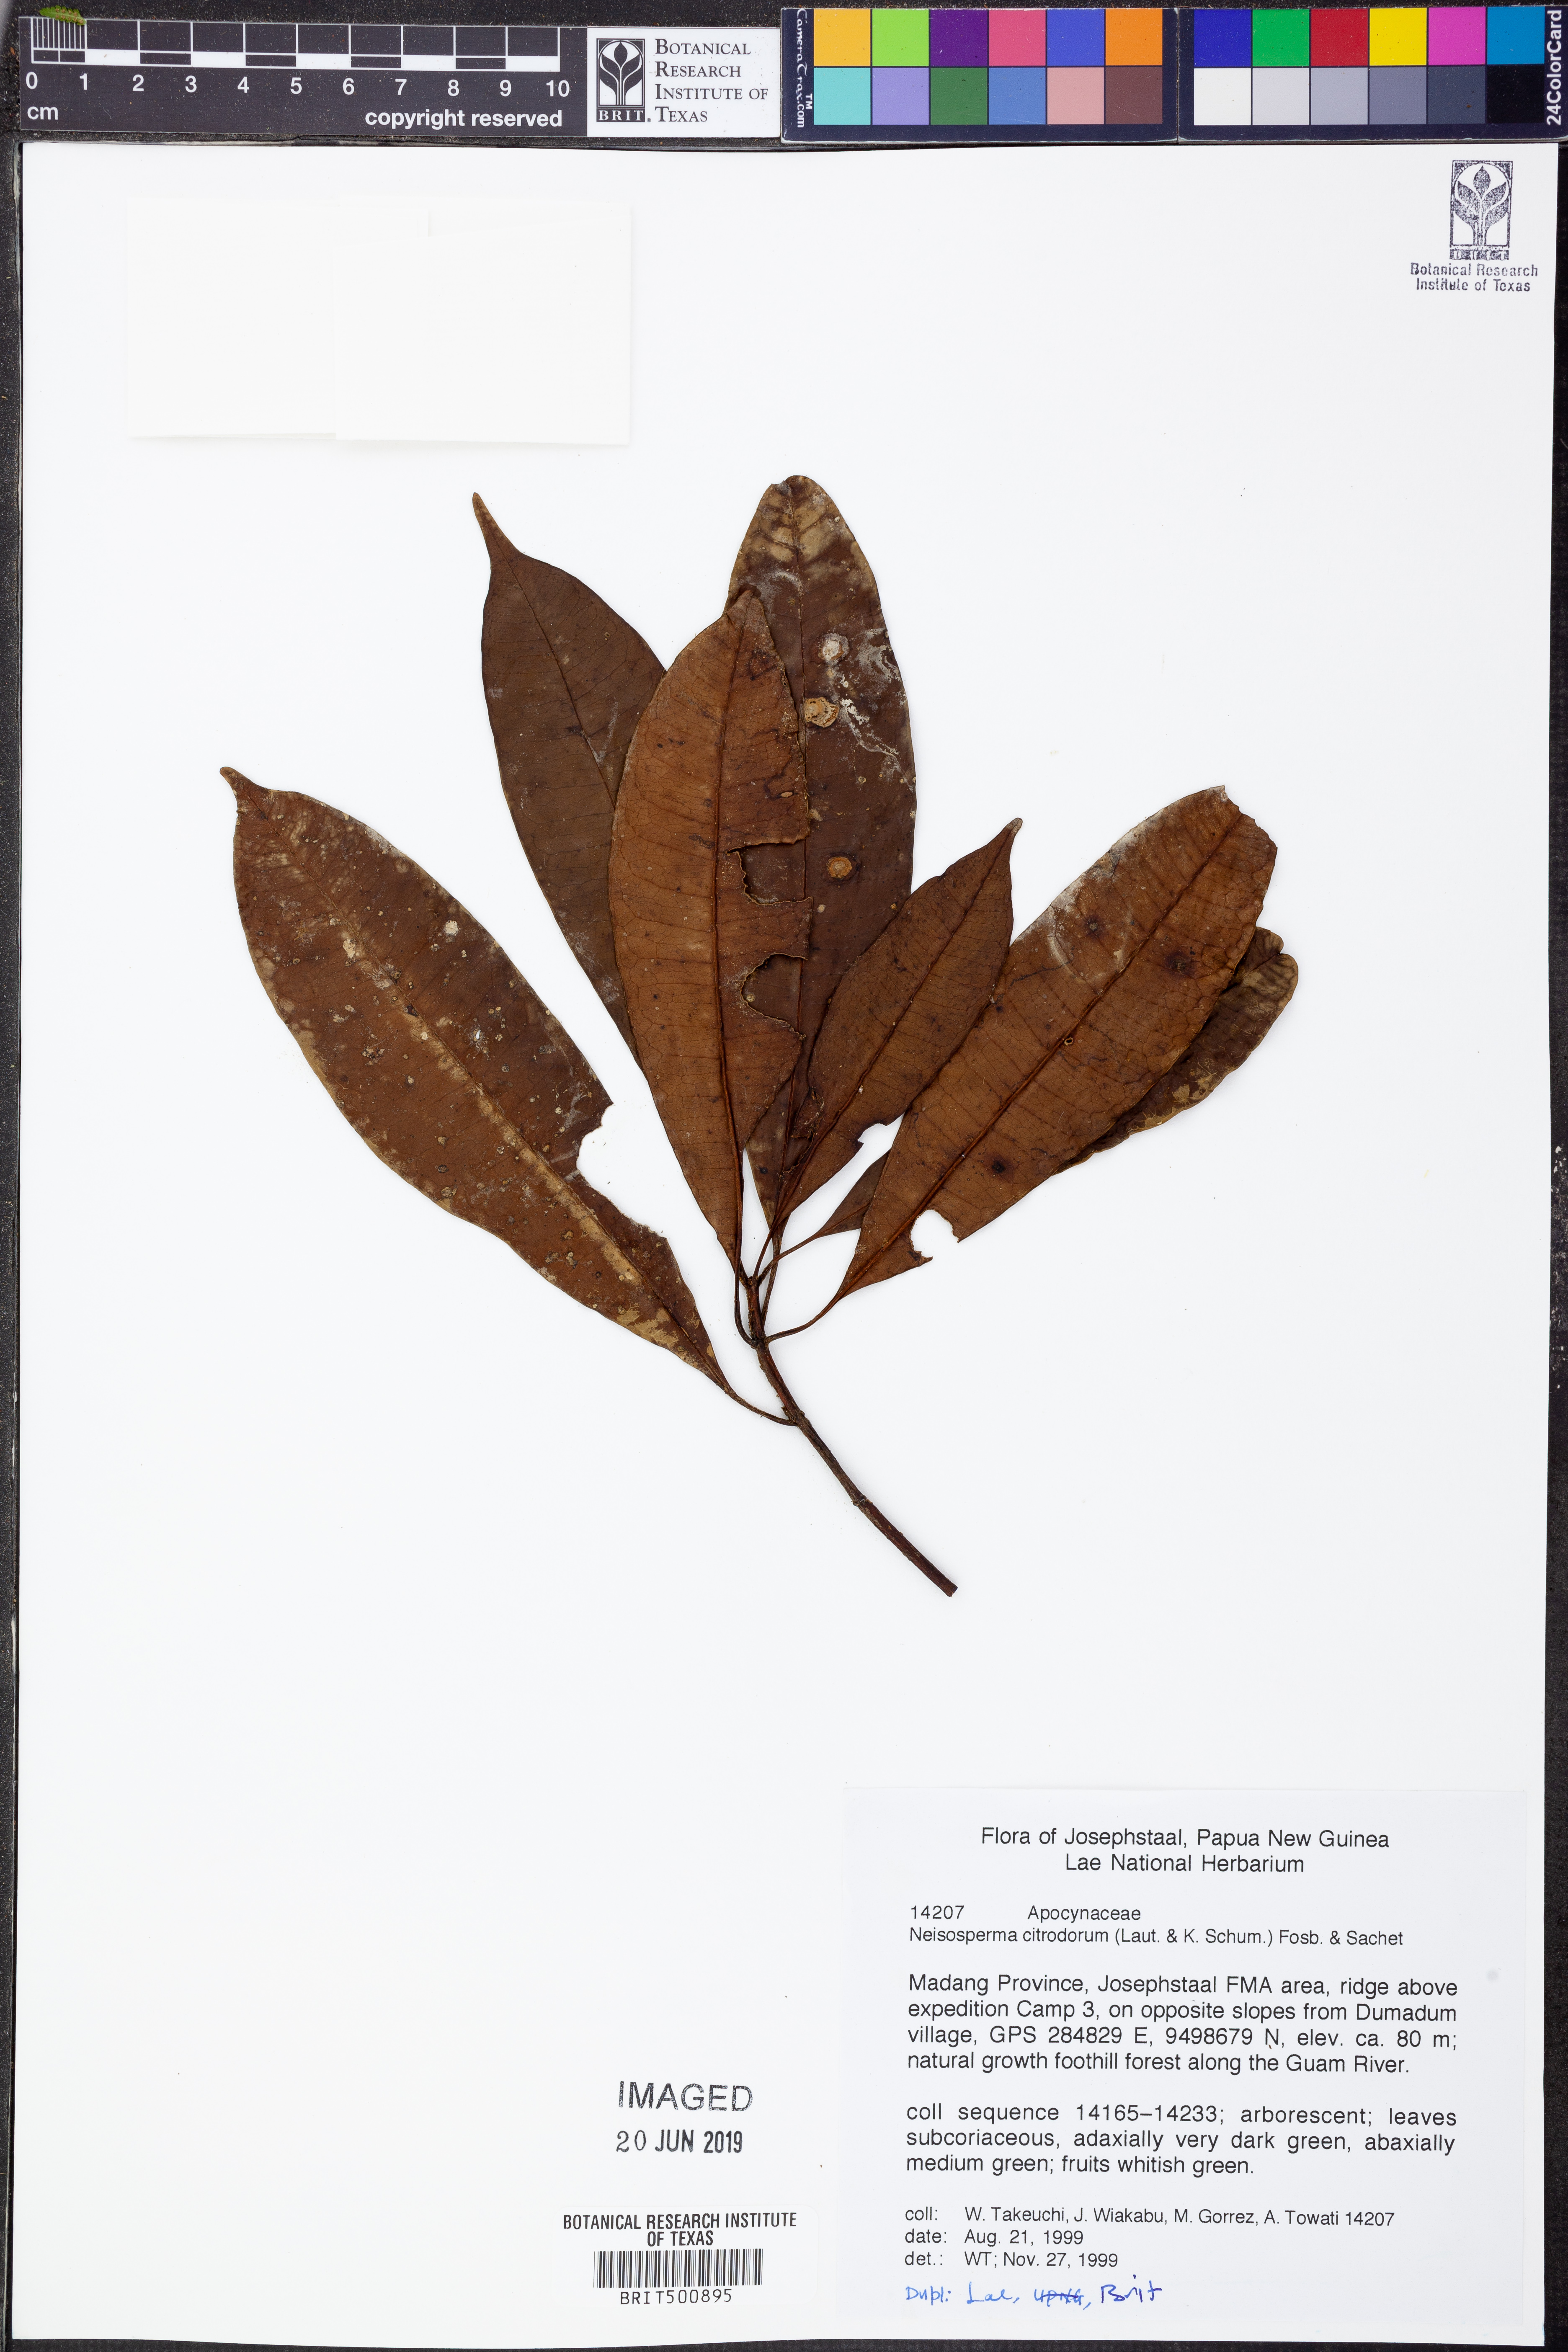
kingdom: Plantae
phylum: Tracheophyta
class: Magnoliopsida
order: Gentianales
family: Apocynaceae
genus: Ochrosia
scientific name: Ochrosia citrodora
